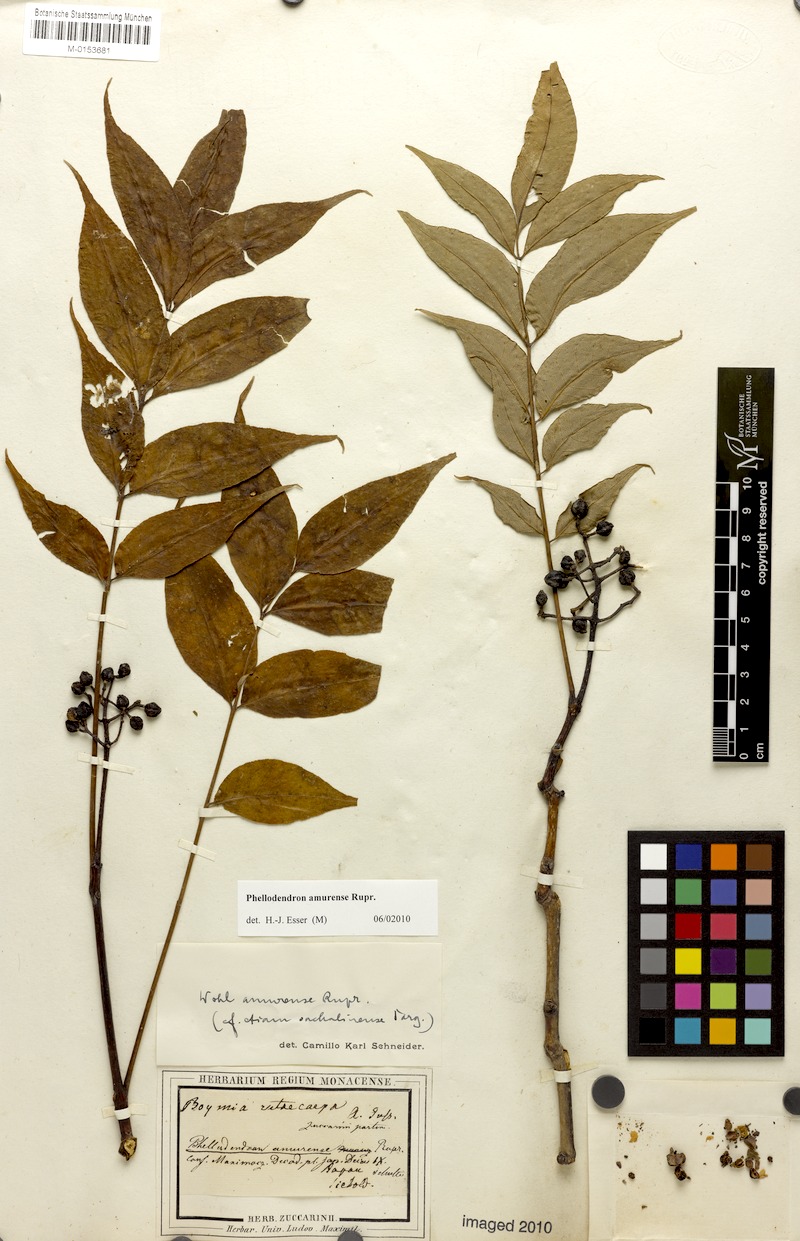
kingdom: Plantae
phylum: Tracheophyta
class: Magnoliopsida
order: Sapindales
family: Rutaceae
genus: Phellodendron
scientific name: Phellodendron amurense
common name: Amur corktree
